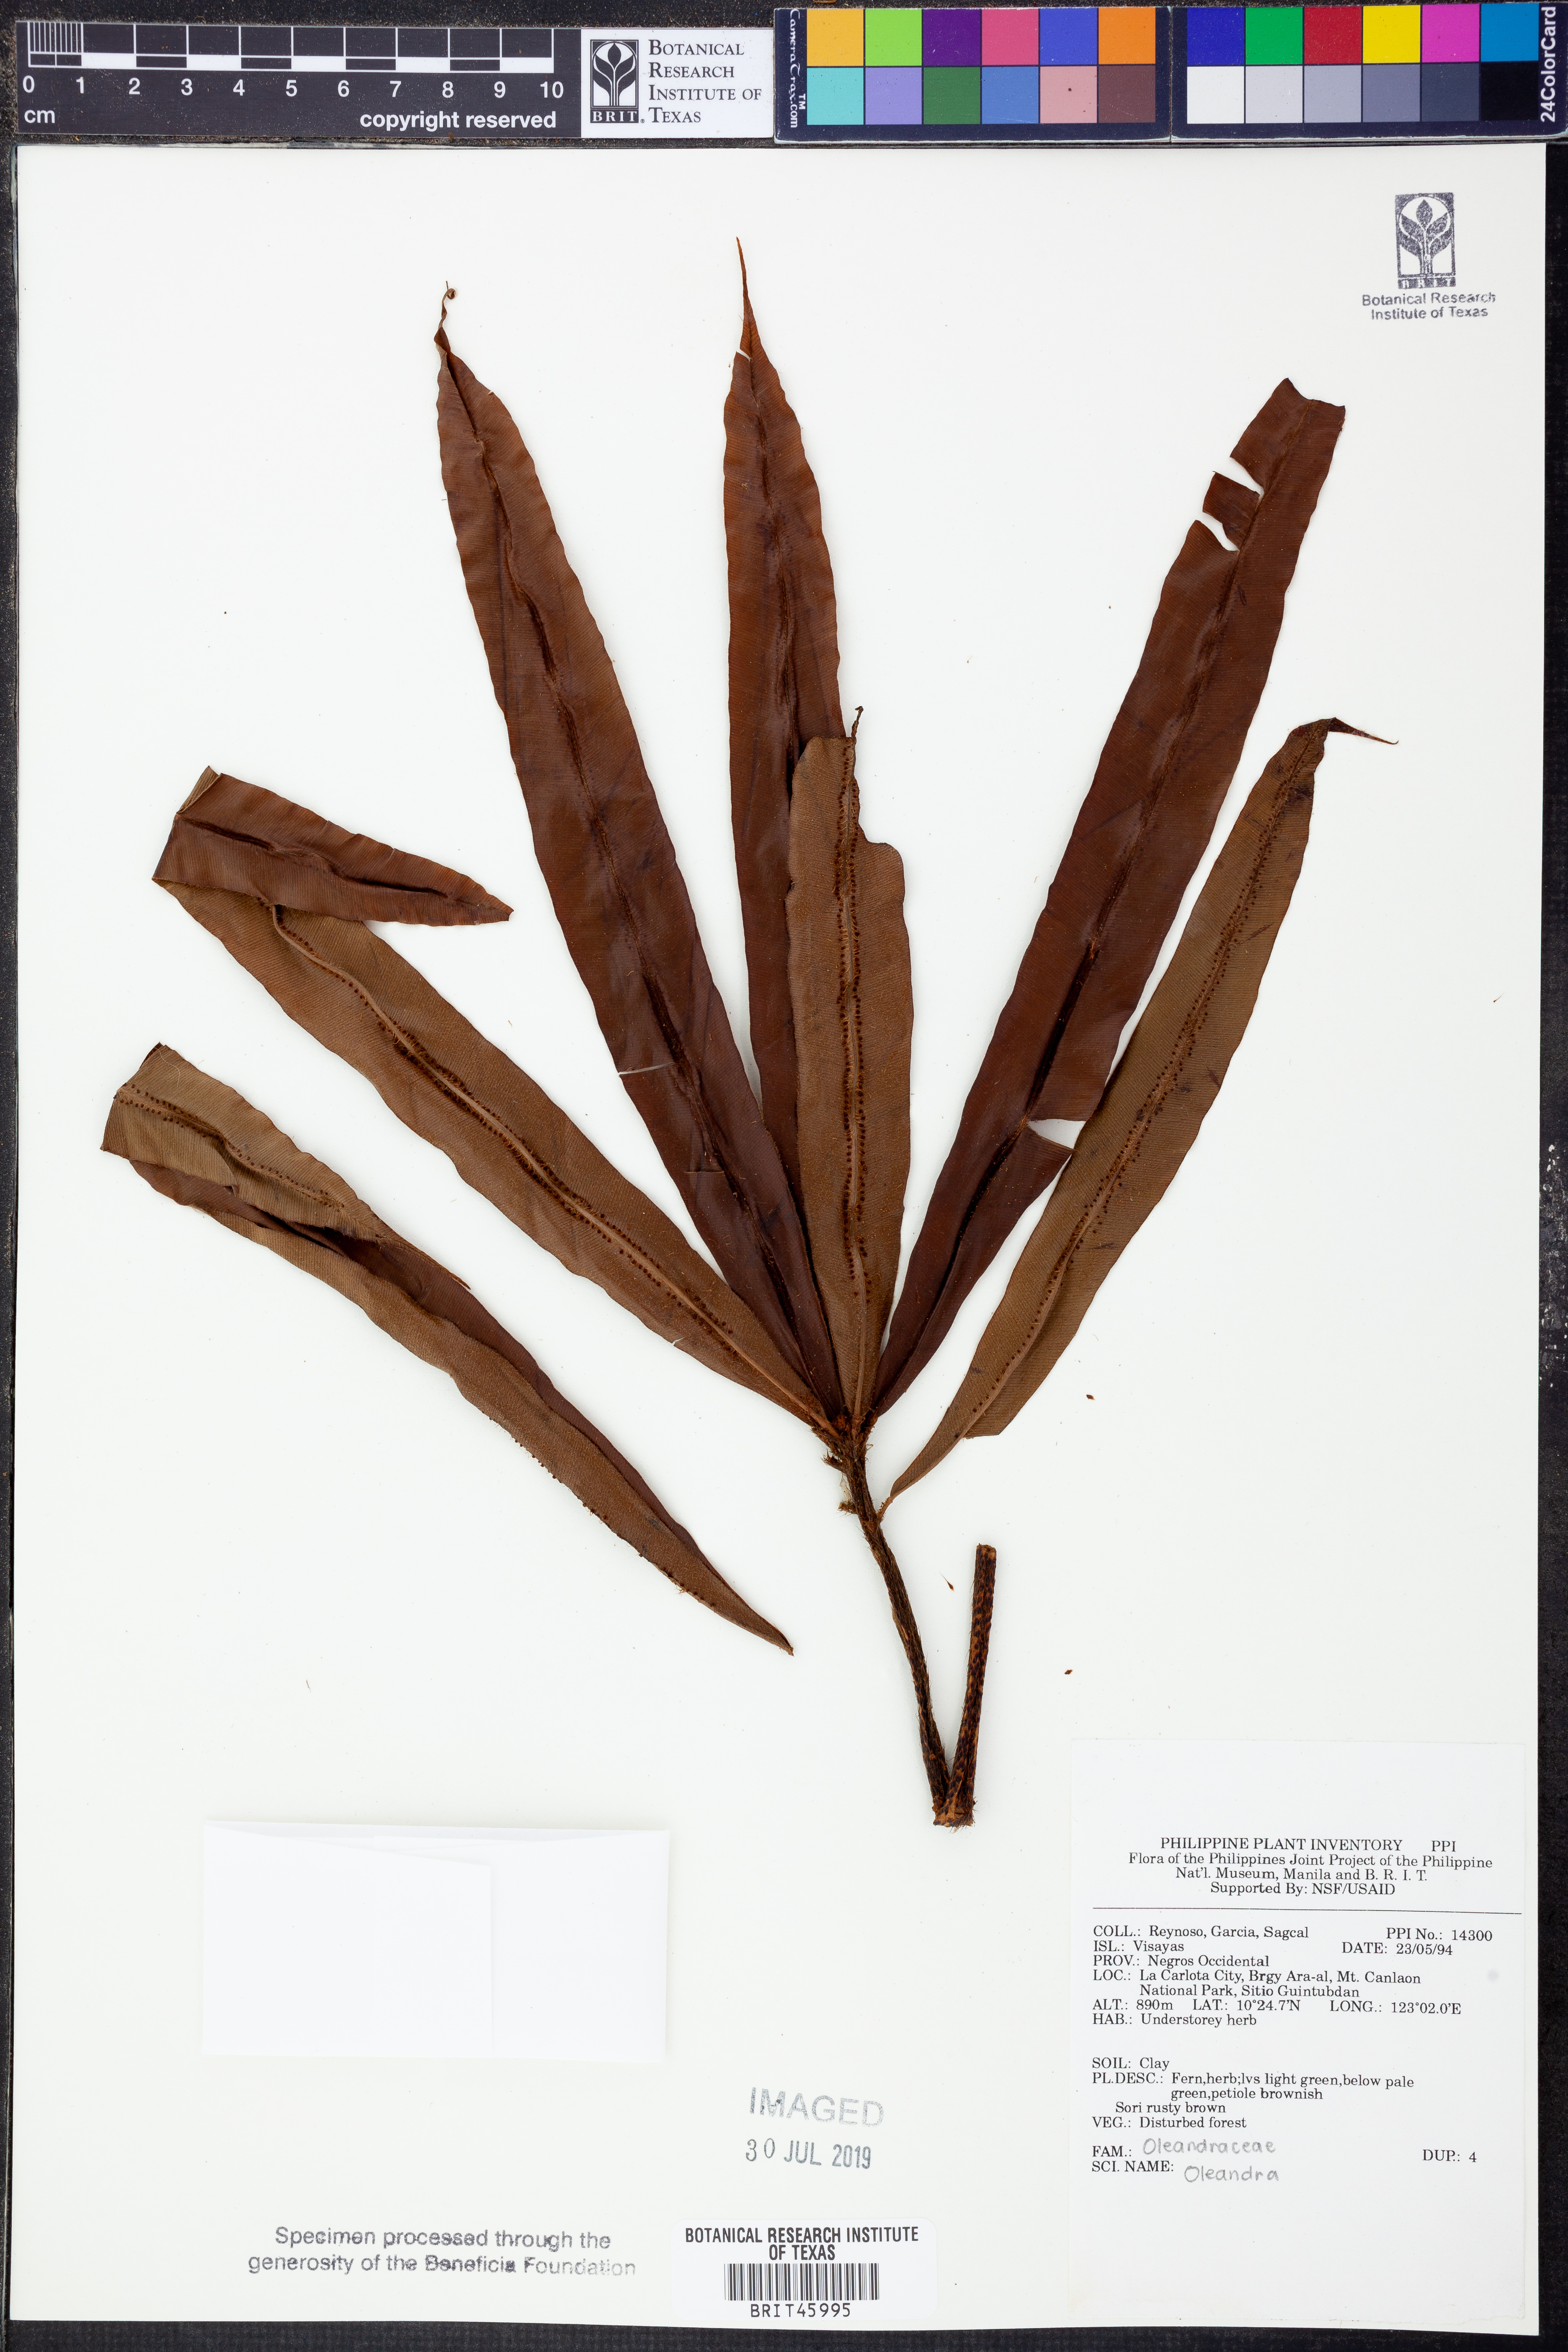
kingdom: Plantae
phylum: Tracheophyta
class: Polypodiopsida
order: Polypodiales
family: Oleandraceae
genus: Oleandra
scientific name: Oleandra
